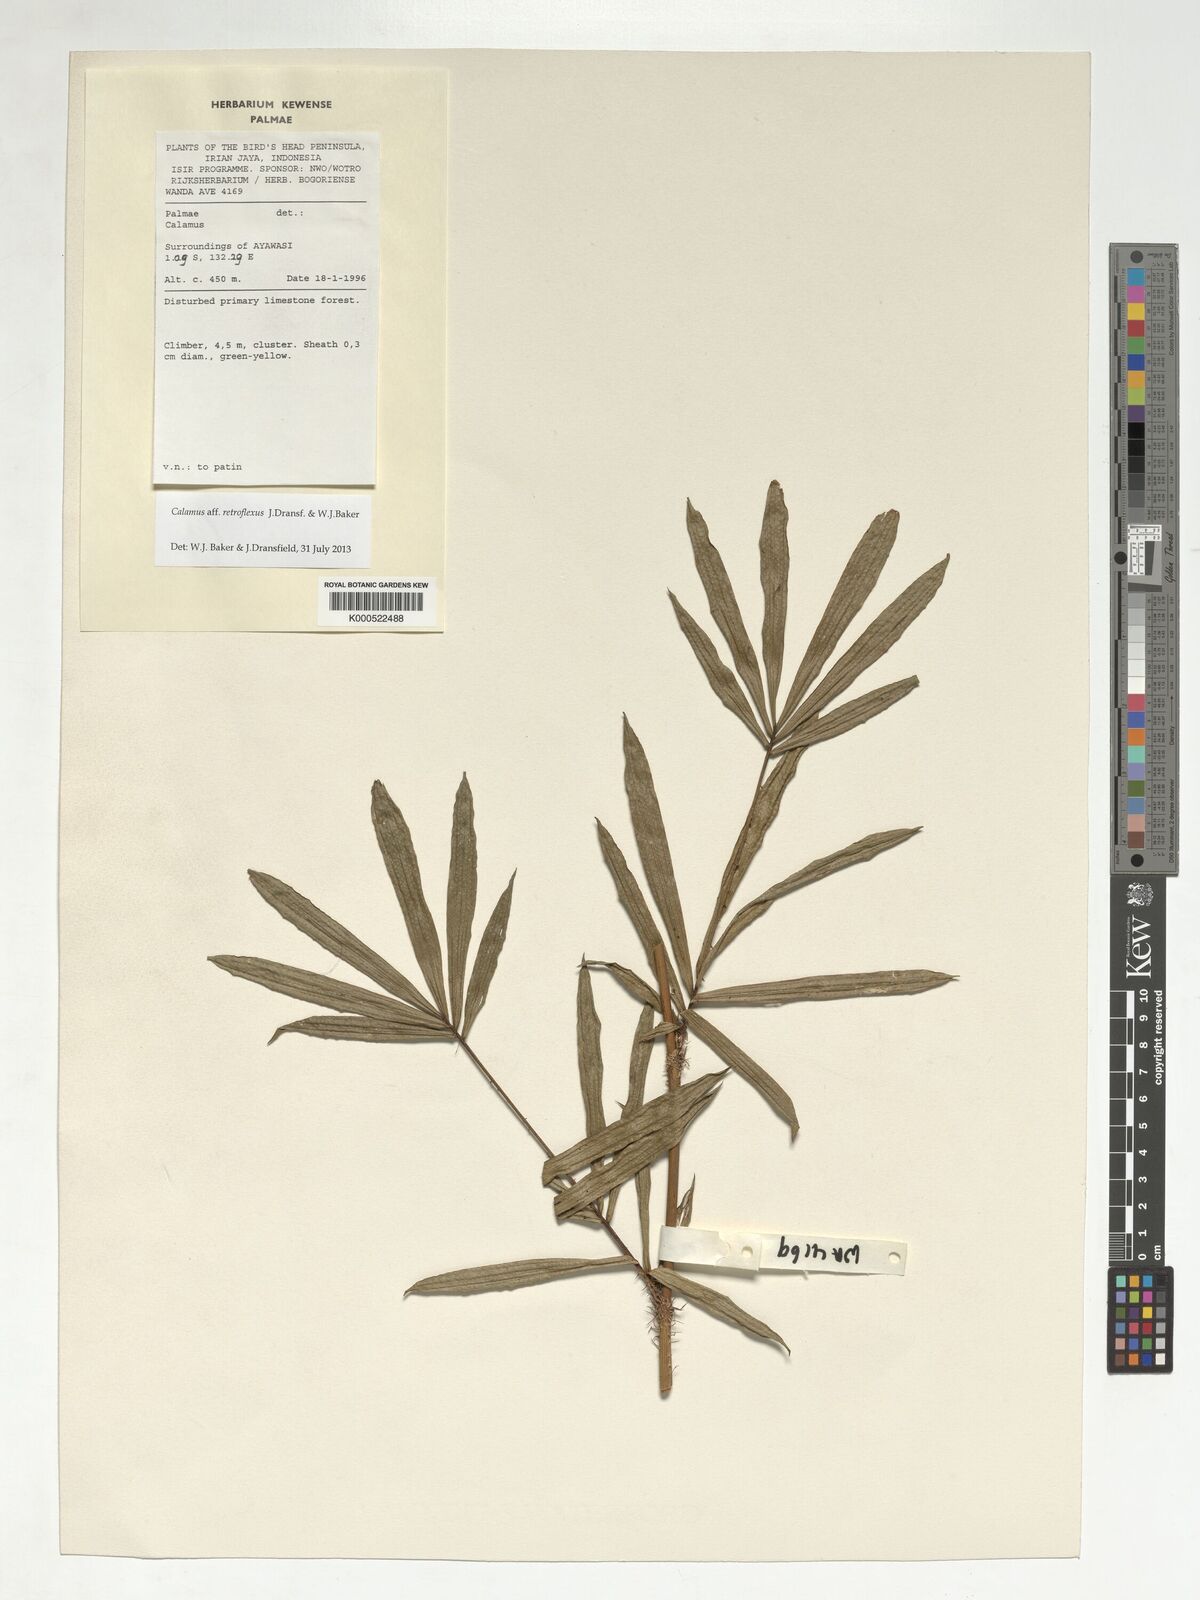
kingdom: Plantae
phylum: Tracheophyta
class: Liliopsida
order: Arecales
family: Arecaceae
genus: Calamus
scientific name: Calamus
